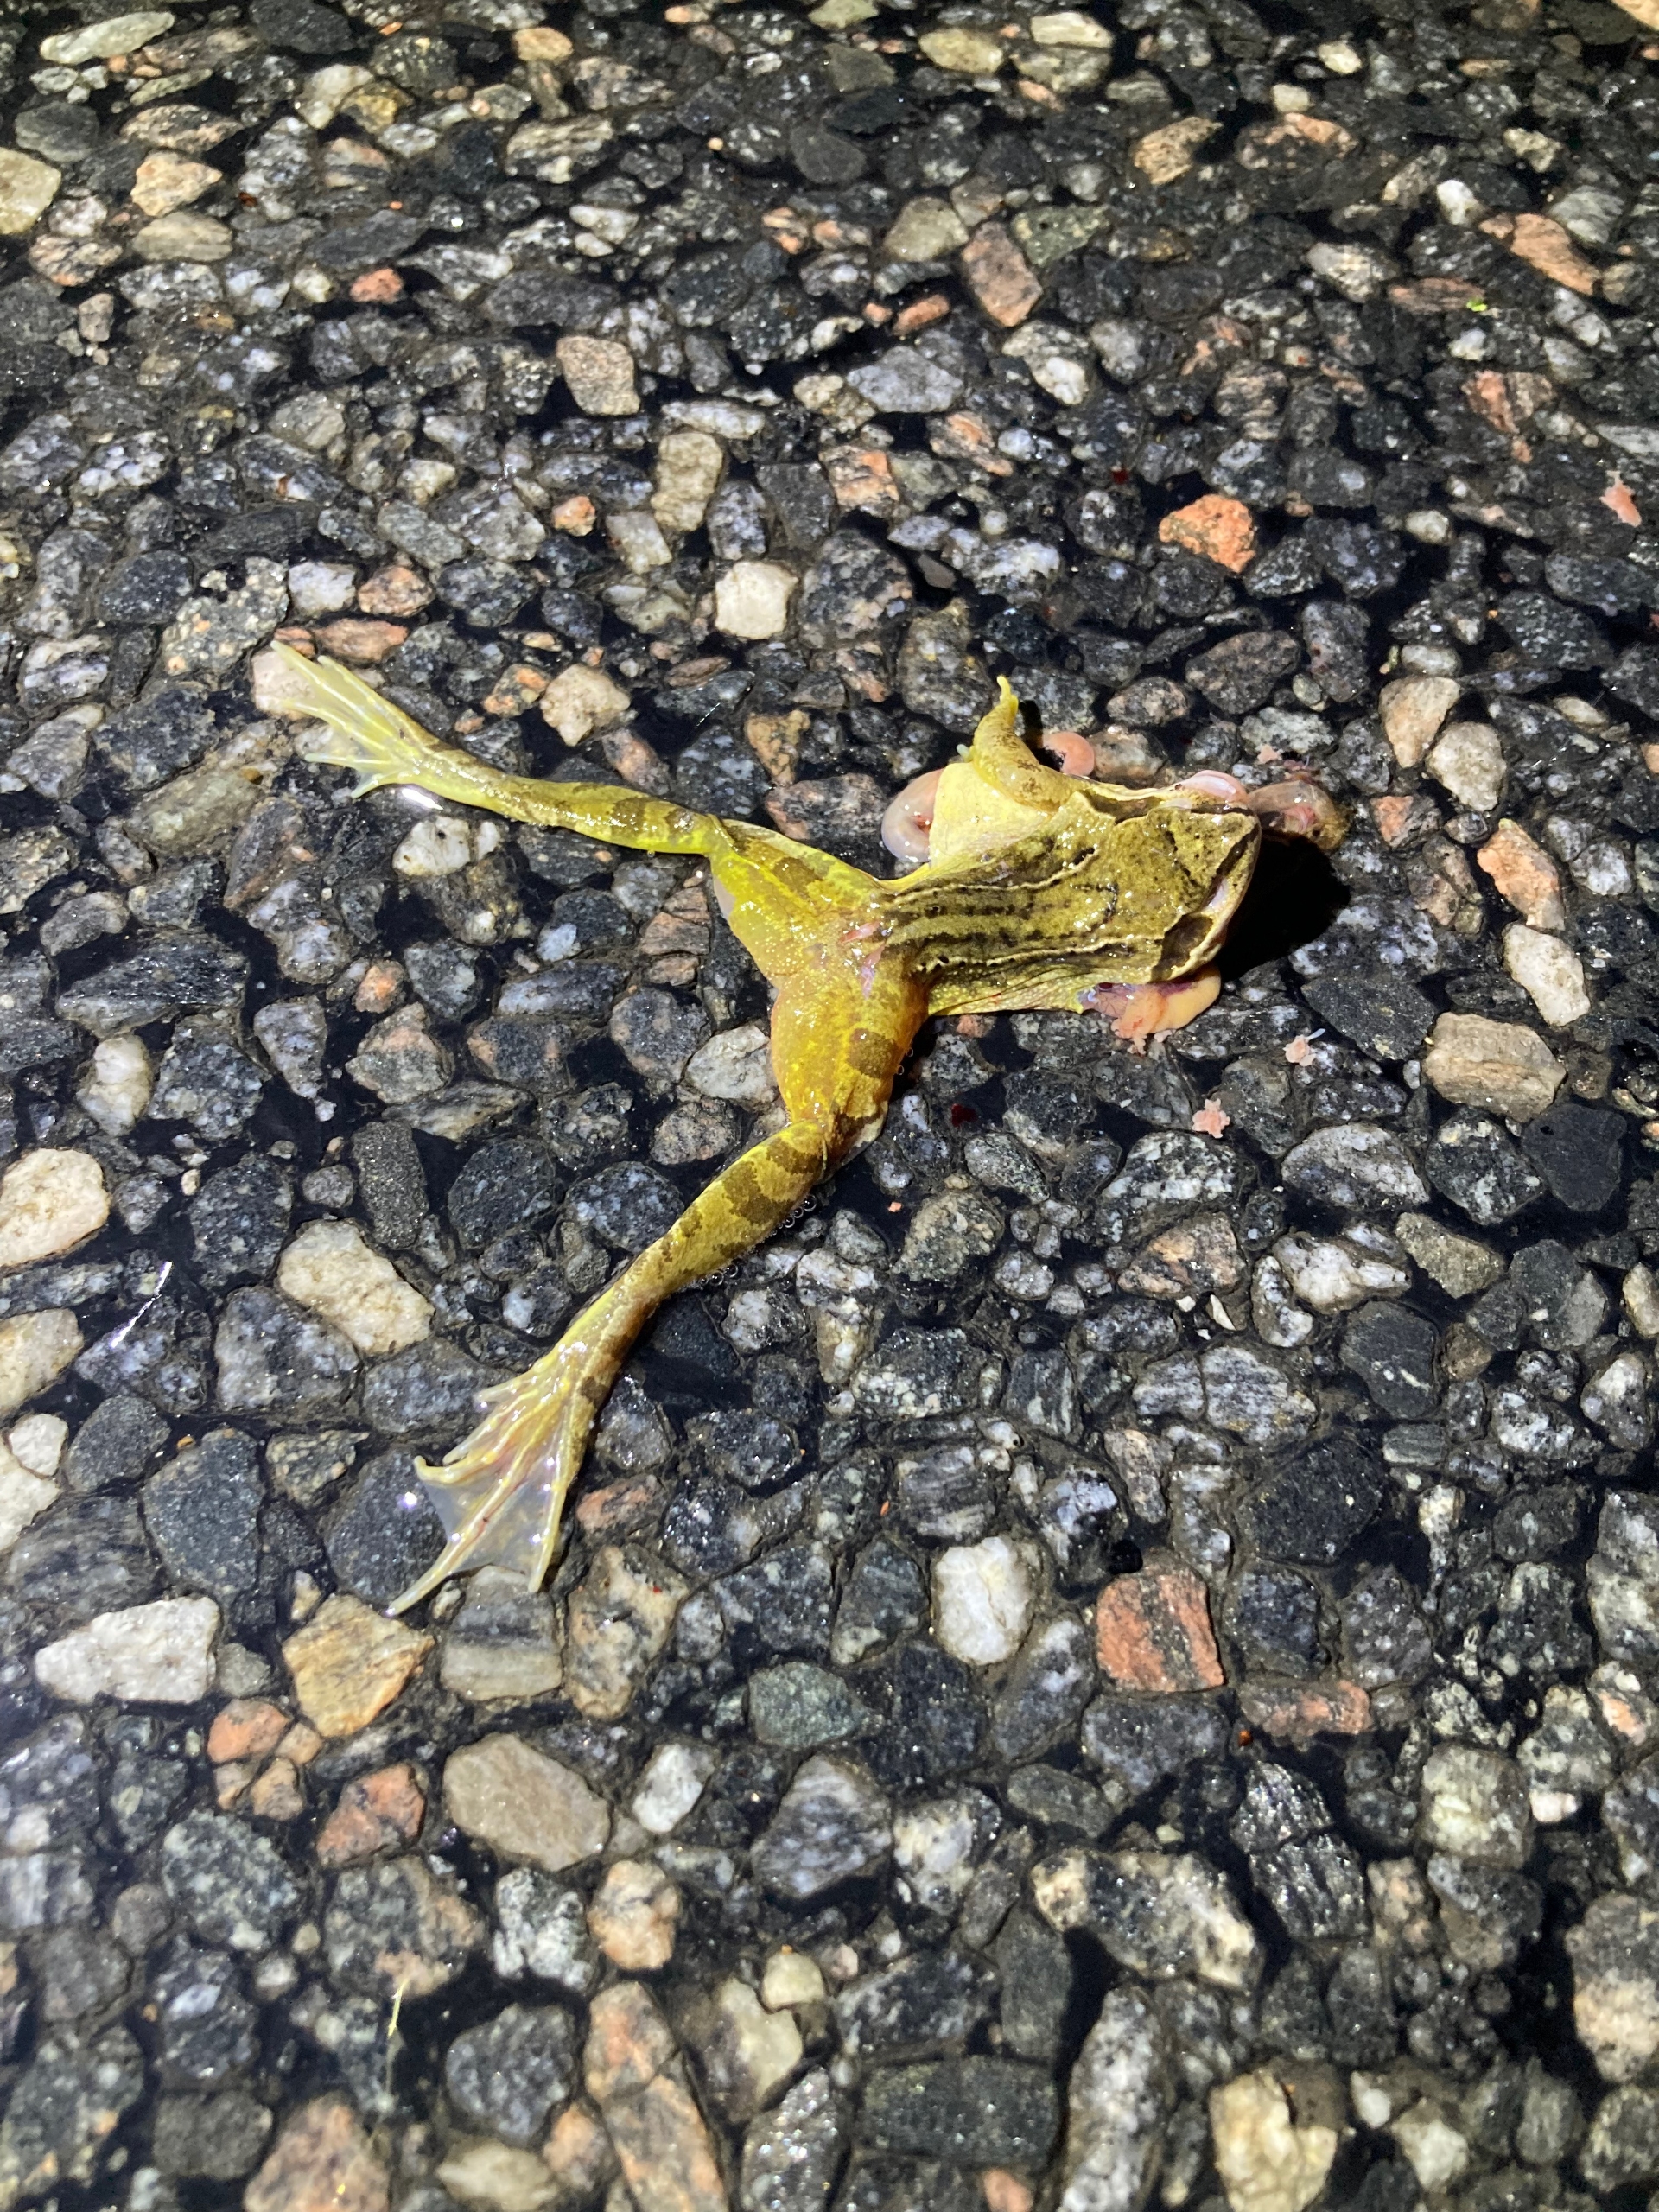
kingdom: Animalia
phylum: Chordata
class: Amphibia
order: Anura
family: Ranidae
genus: Rana
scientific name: Rana temporaria
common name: Butsnudet frø
